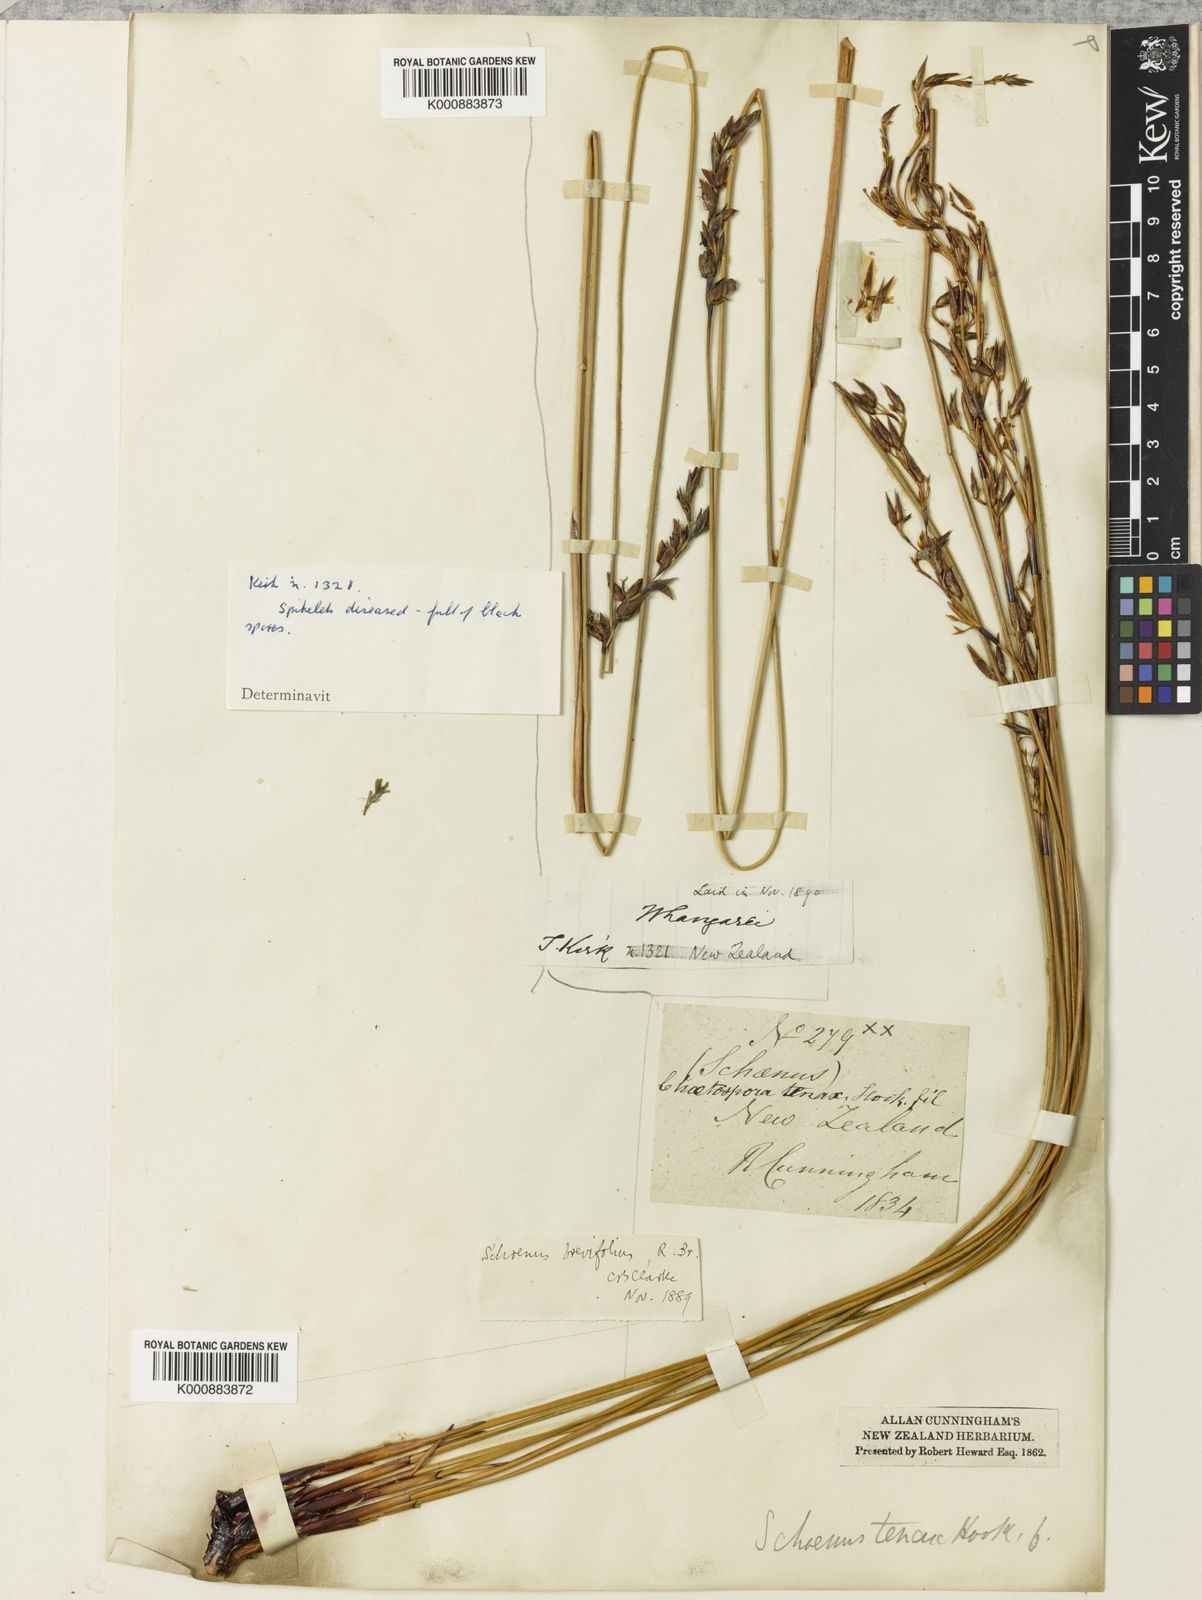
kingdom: Plantae
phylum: Tracheophyta
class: Liliopsida
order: Poales
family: Cyperaceae
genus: Schoenus
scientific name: Schoenus brevifolius
